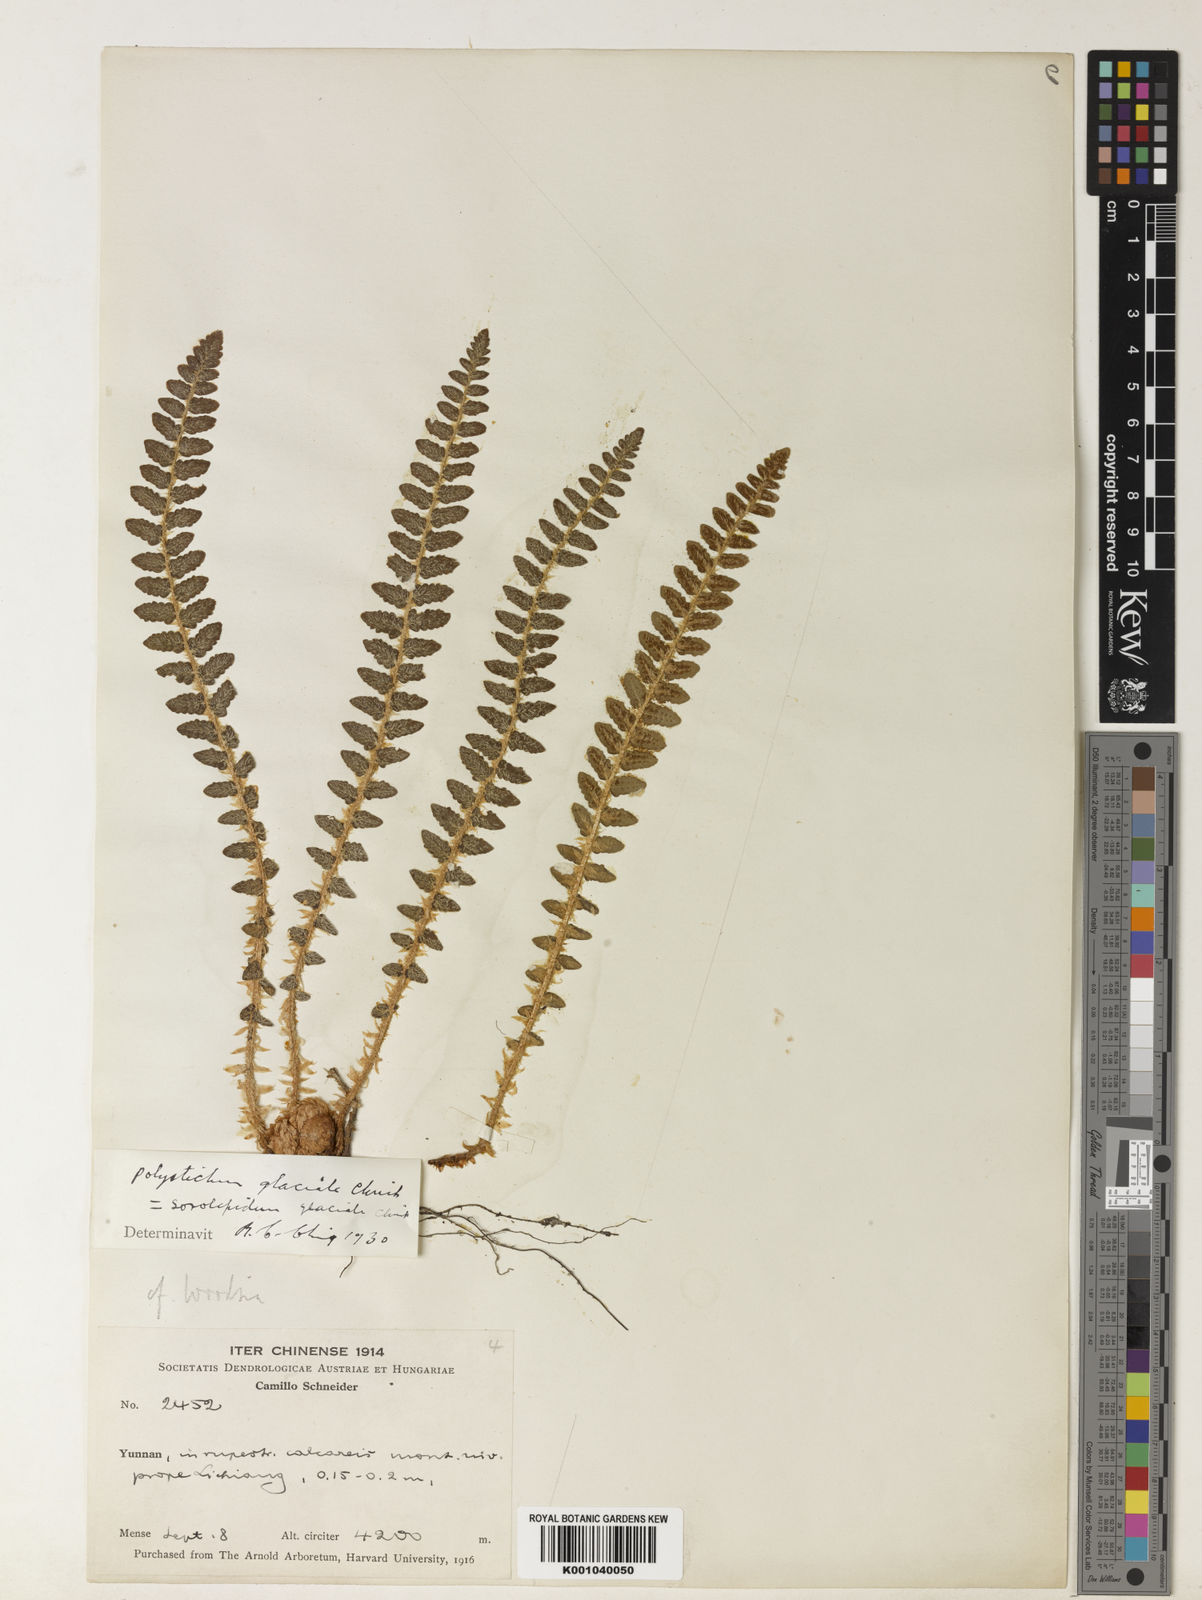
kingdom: Plantae
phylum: Tracheophyta
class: Polypodiopsida
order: Polypodiales
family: Dryopteridaceae
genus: Polystichum
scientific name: Polystichum glaciale
